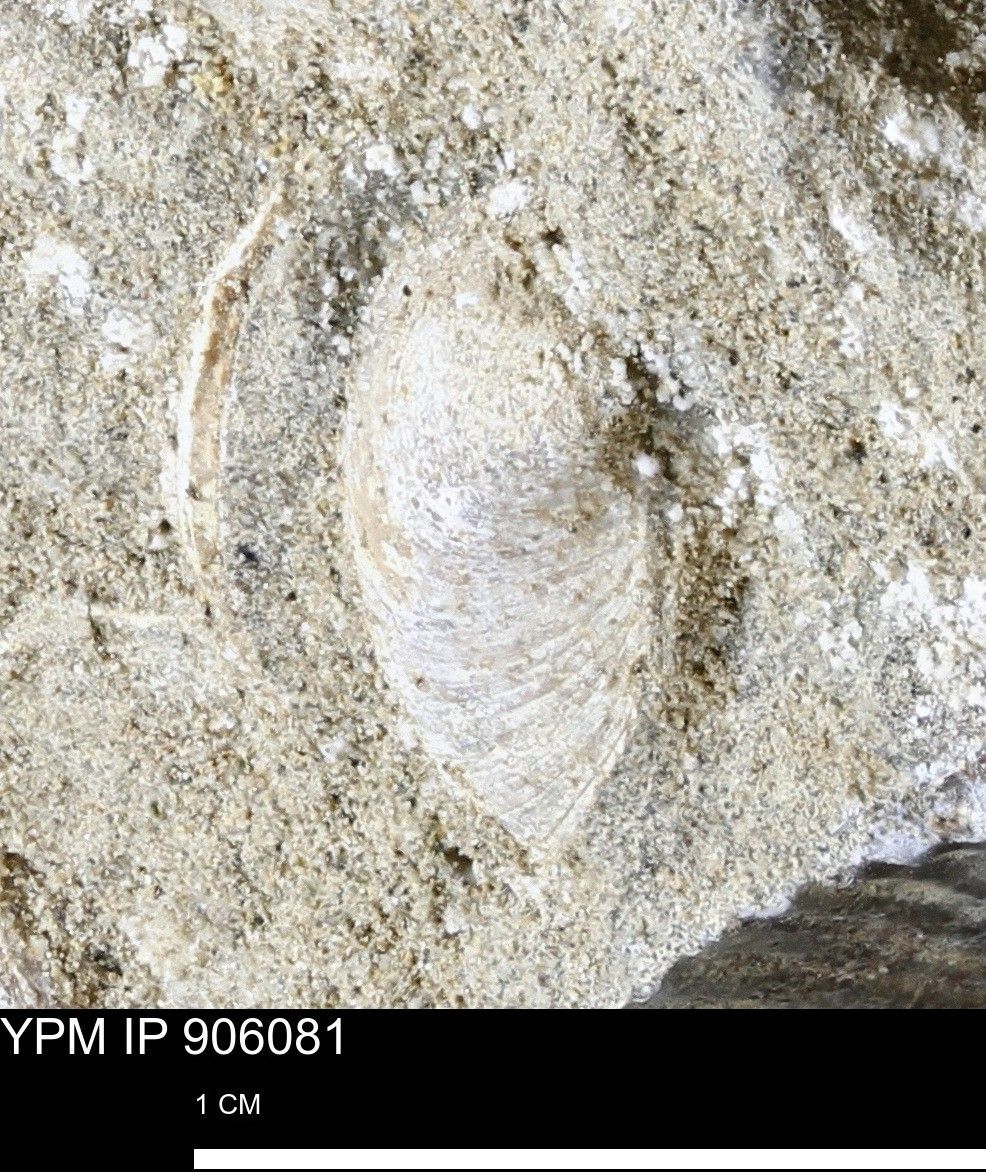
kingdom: Animalia
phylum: Mollusca
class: Bivalvia
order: Arcida
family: Limopsidae
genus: Limopsis
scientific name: Limopsis
